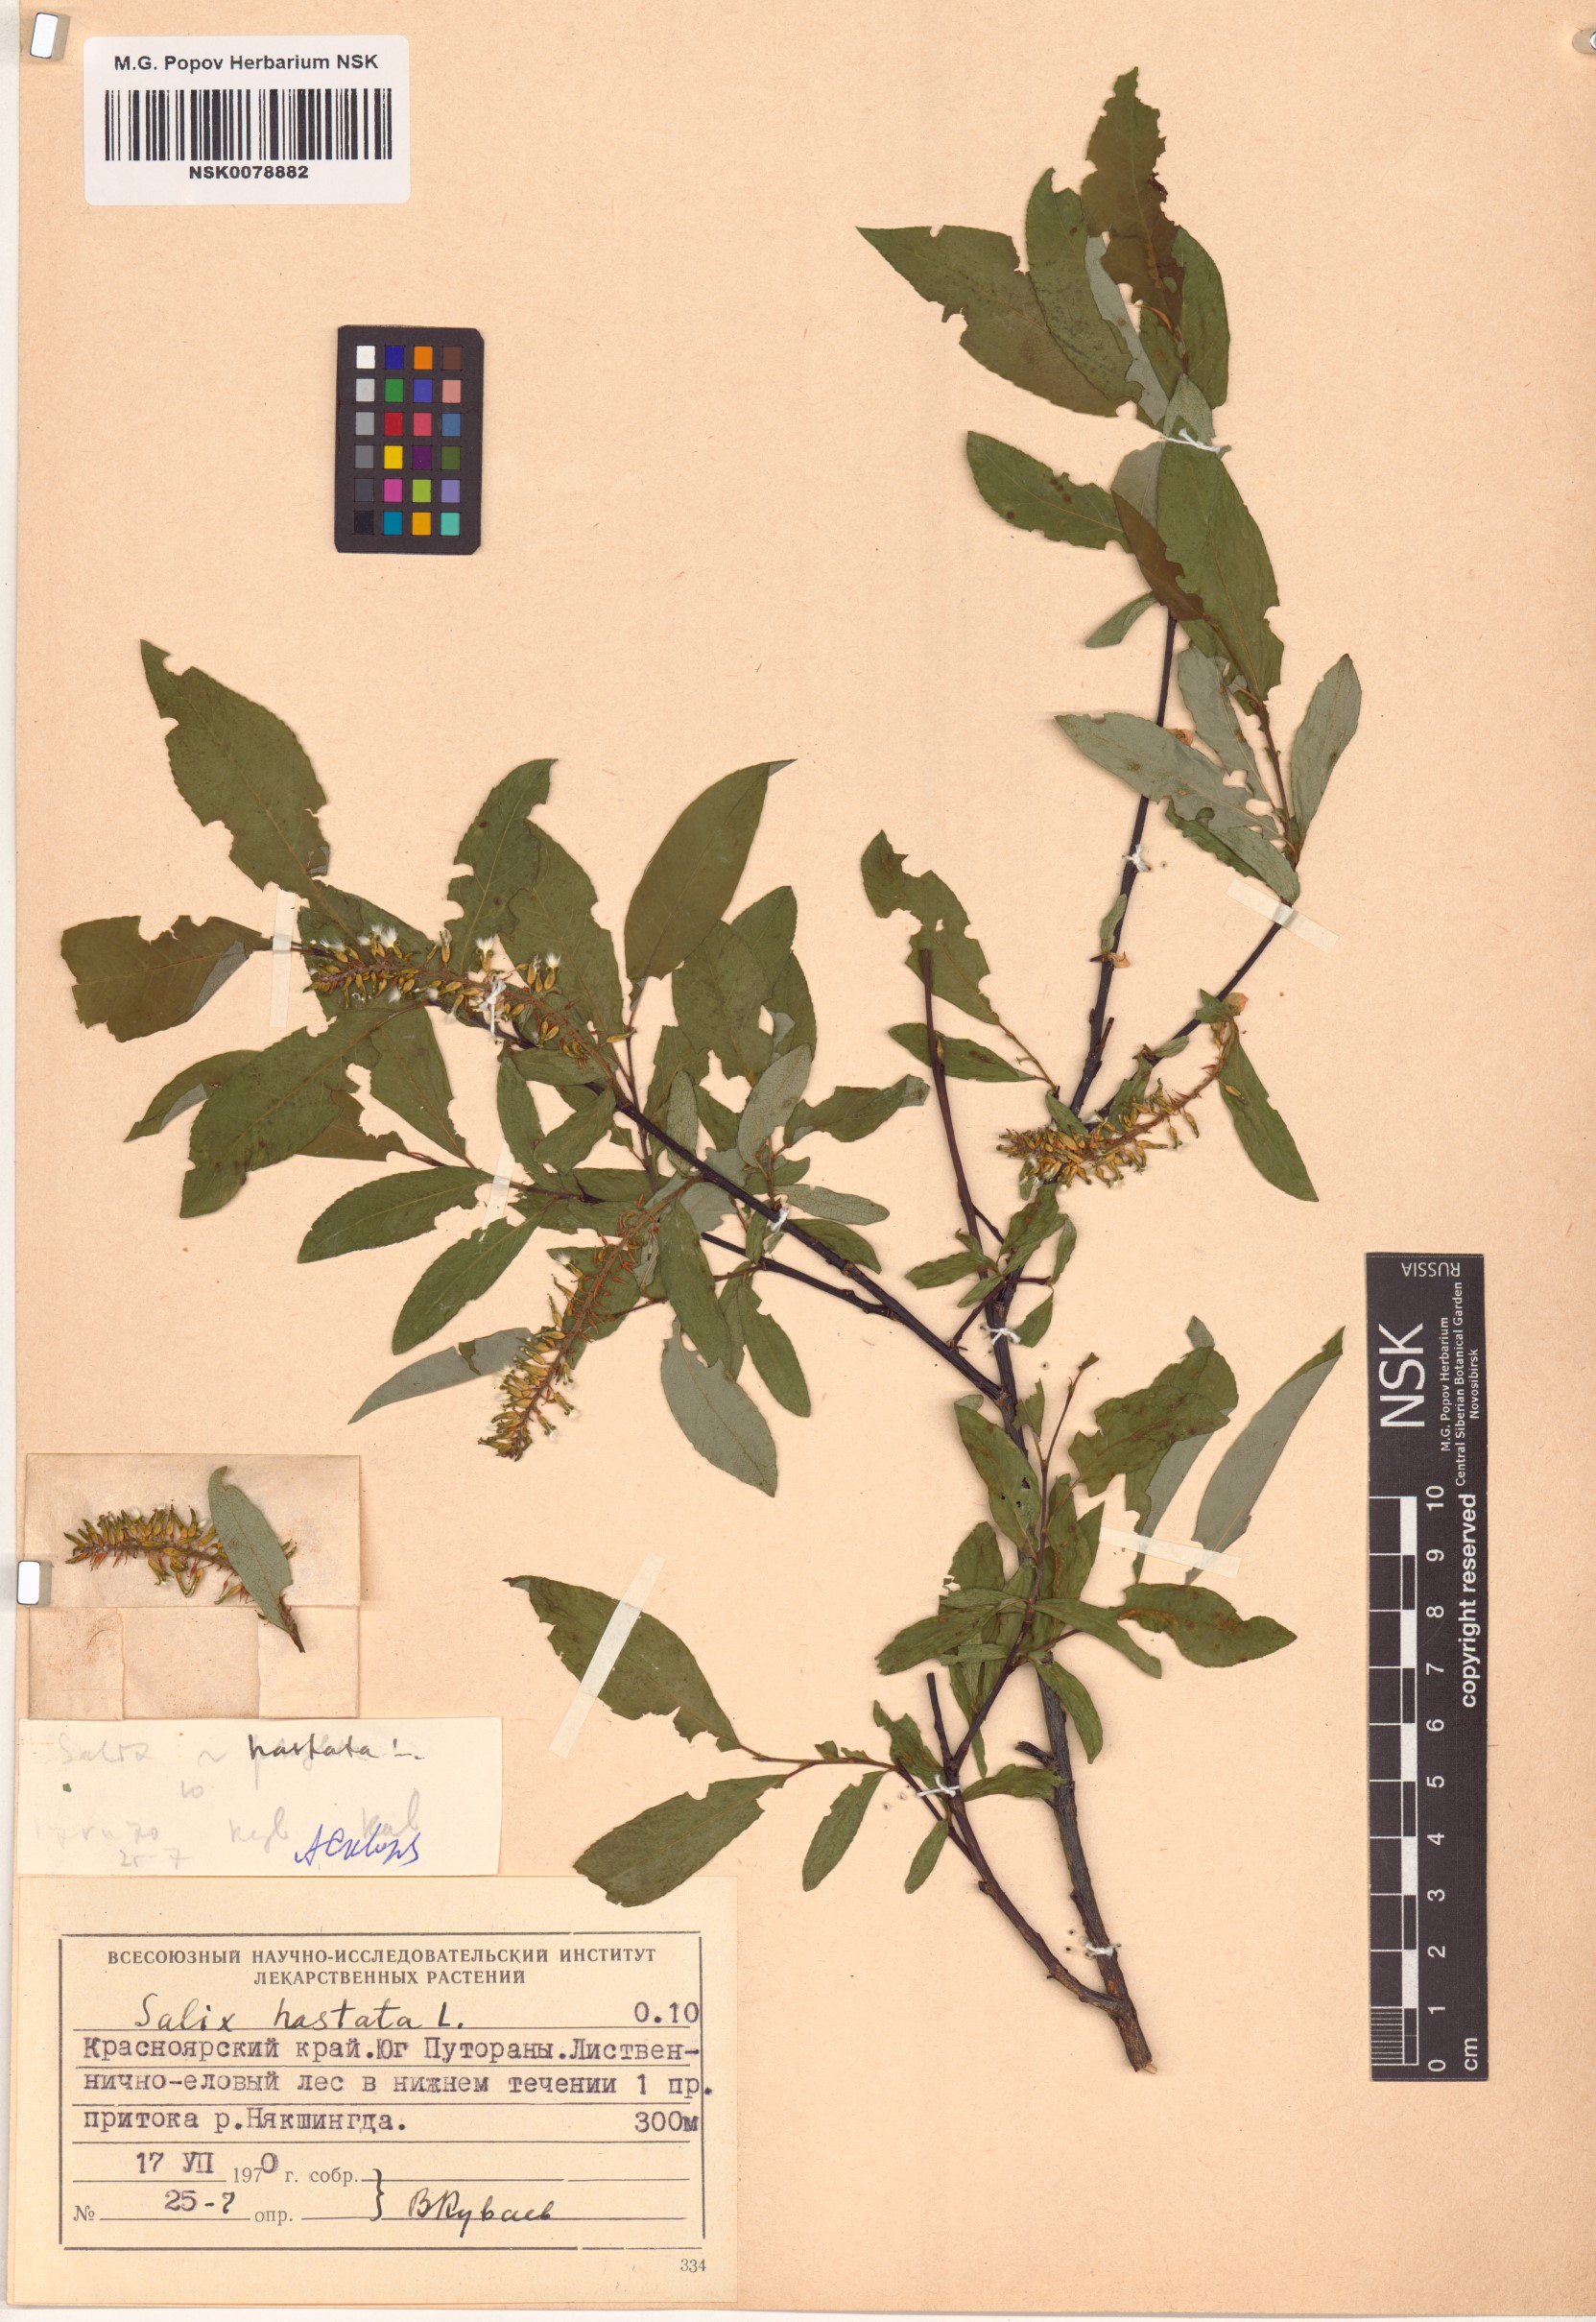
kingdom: Plantae
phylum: Tracheophyta
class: Magnoliopsida
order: Malpighiales
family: Salicaceae
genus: Salix
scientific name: Salix hastata
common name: Halberd willow
